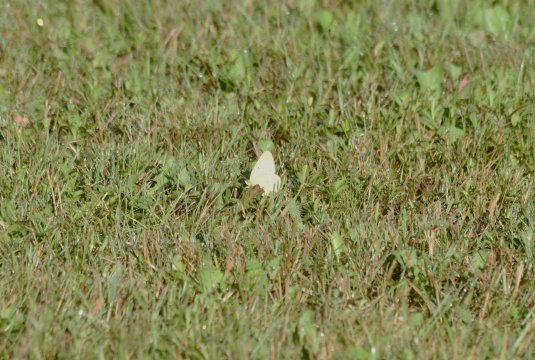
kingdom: Animalia
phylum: Arthropoda
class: Insecta
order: Lepidoptera
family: Pieridae
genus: Colias
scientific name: Colias philodice
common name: Clouded Sulphur
